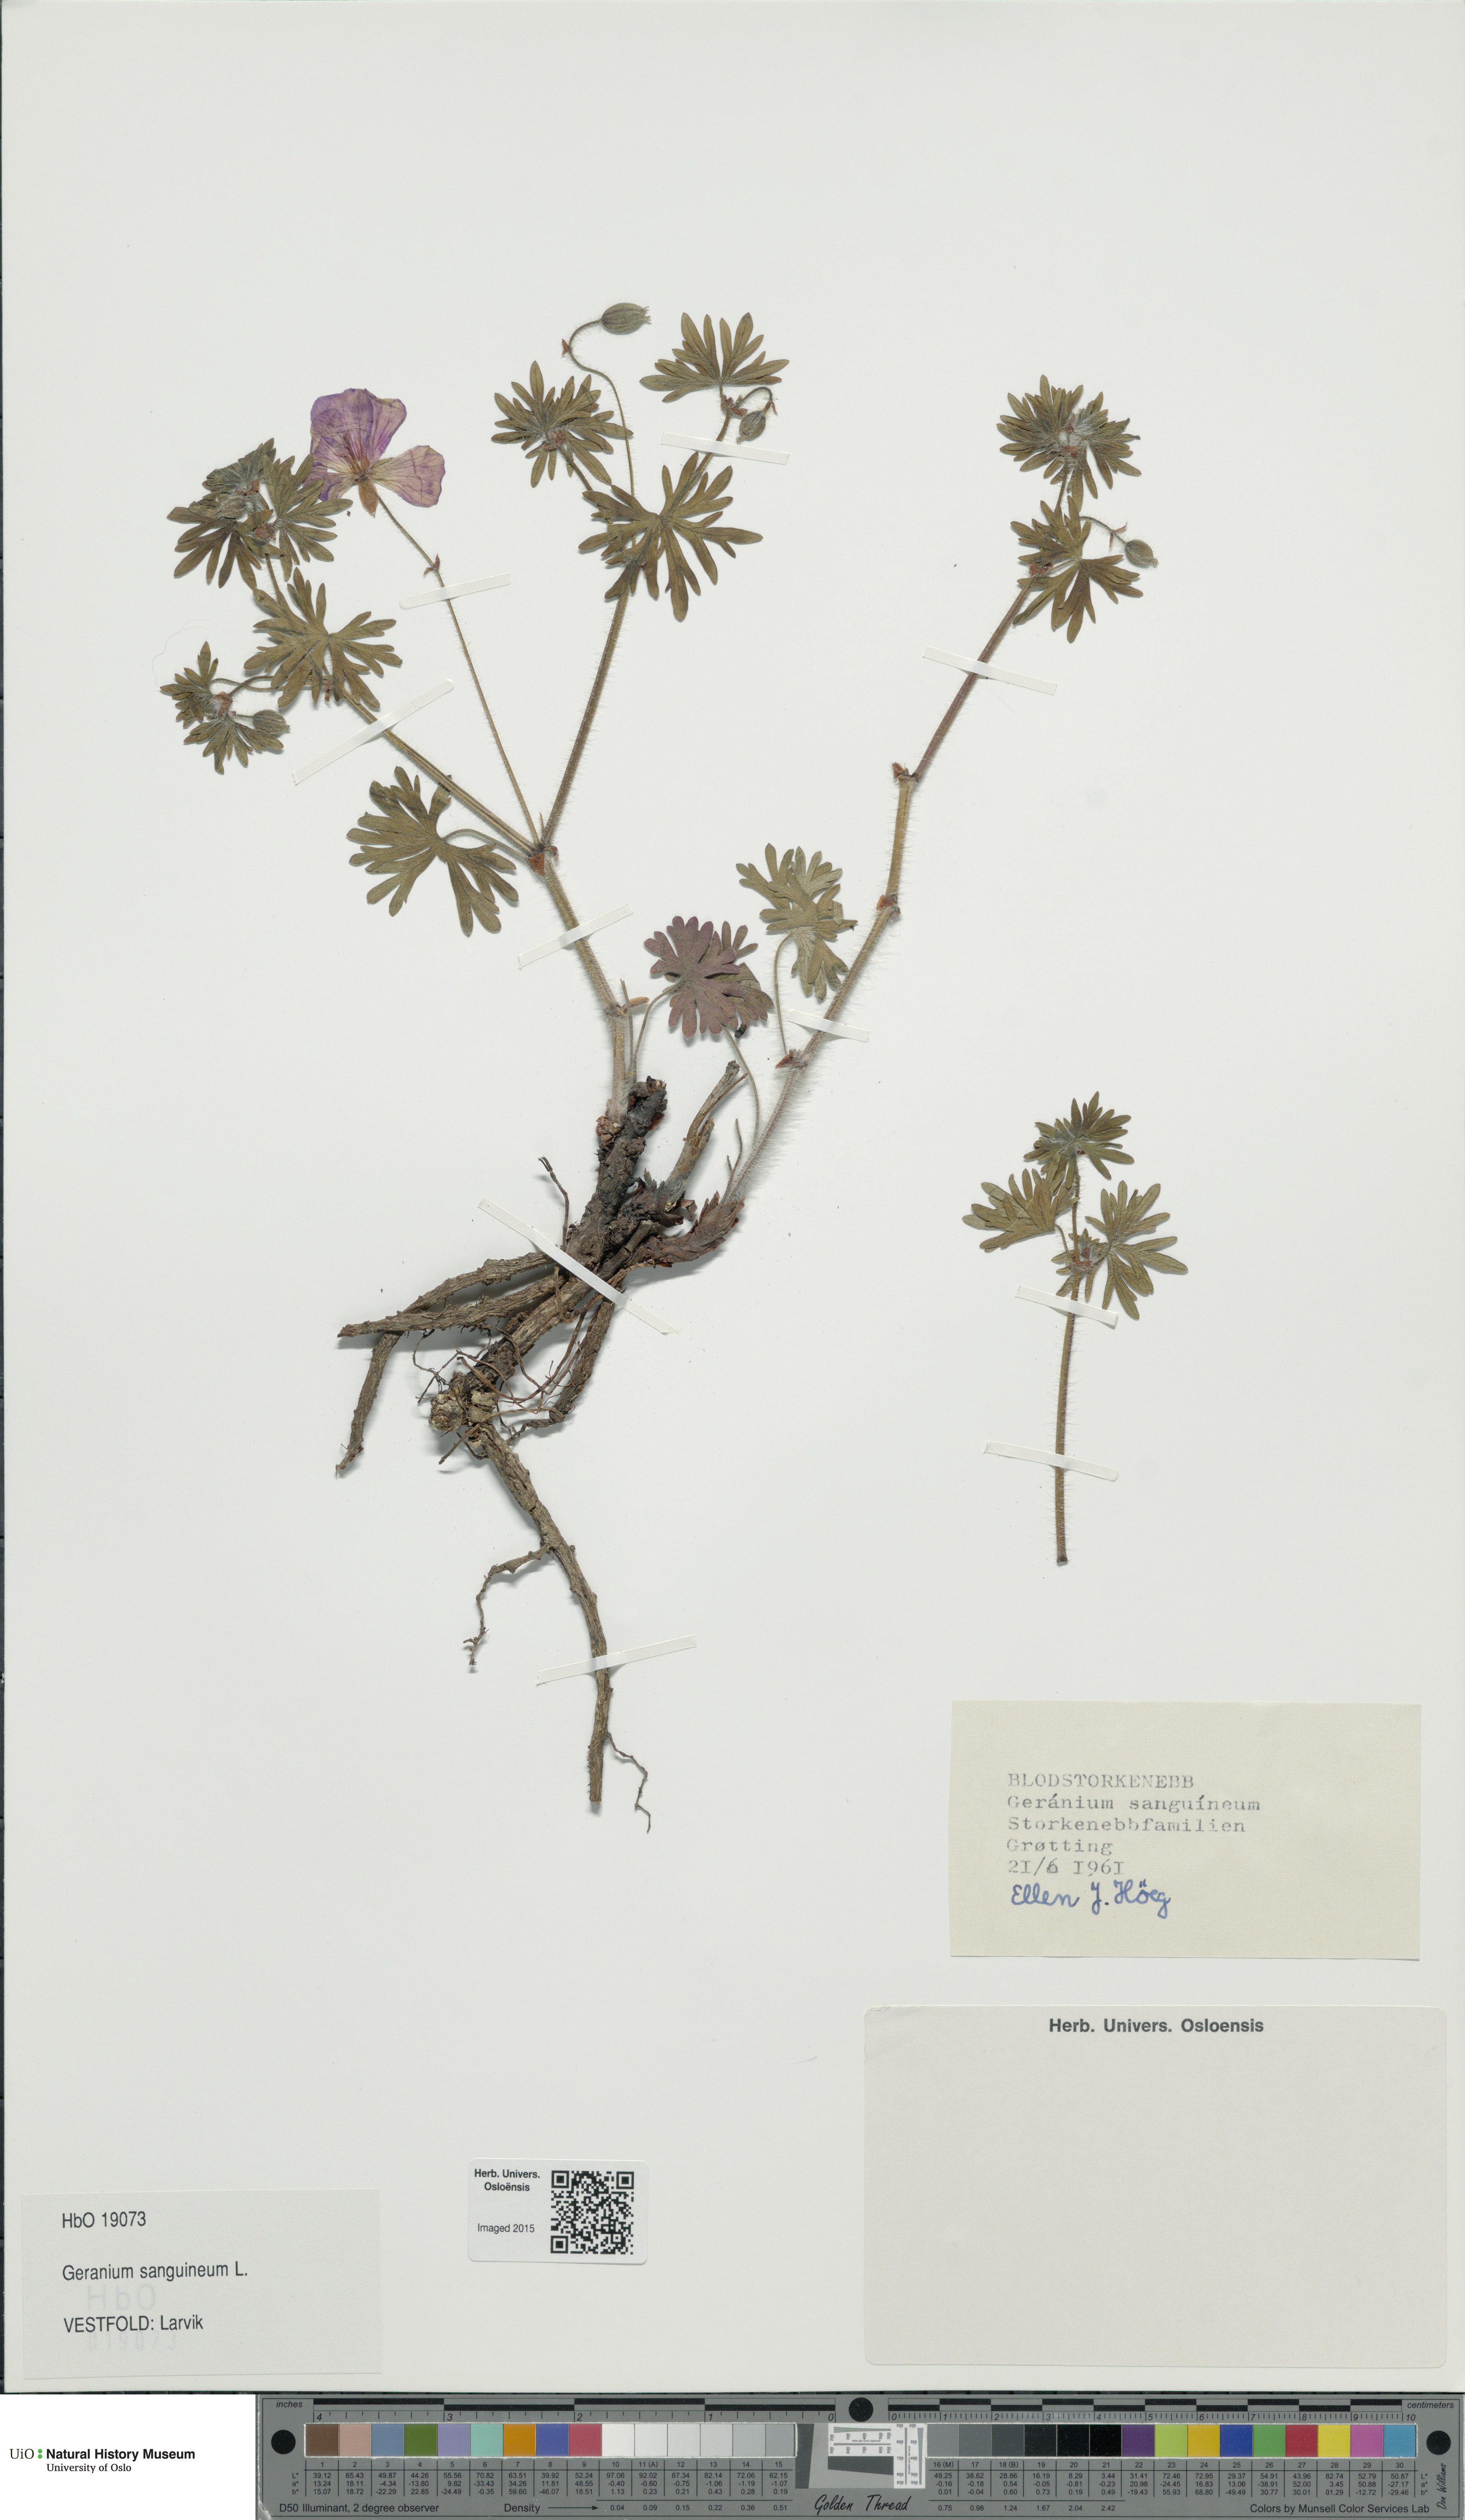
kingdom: Plantae
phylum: Tracheophyta
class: Magnoliopsida
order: Geraniales
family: Geraniaceae
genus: Geranium
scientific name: Geranium sanguineum
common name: Bloody crane's-bill
